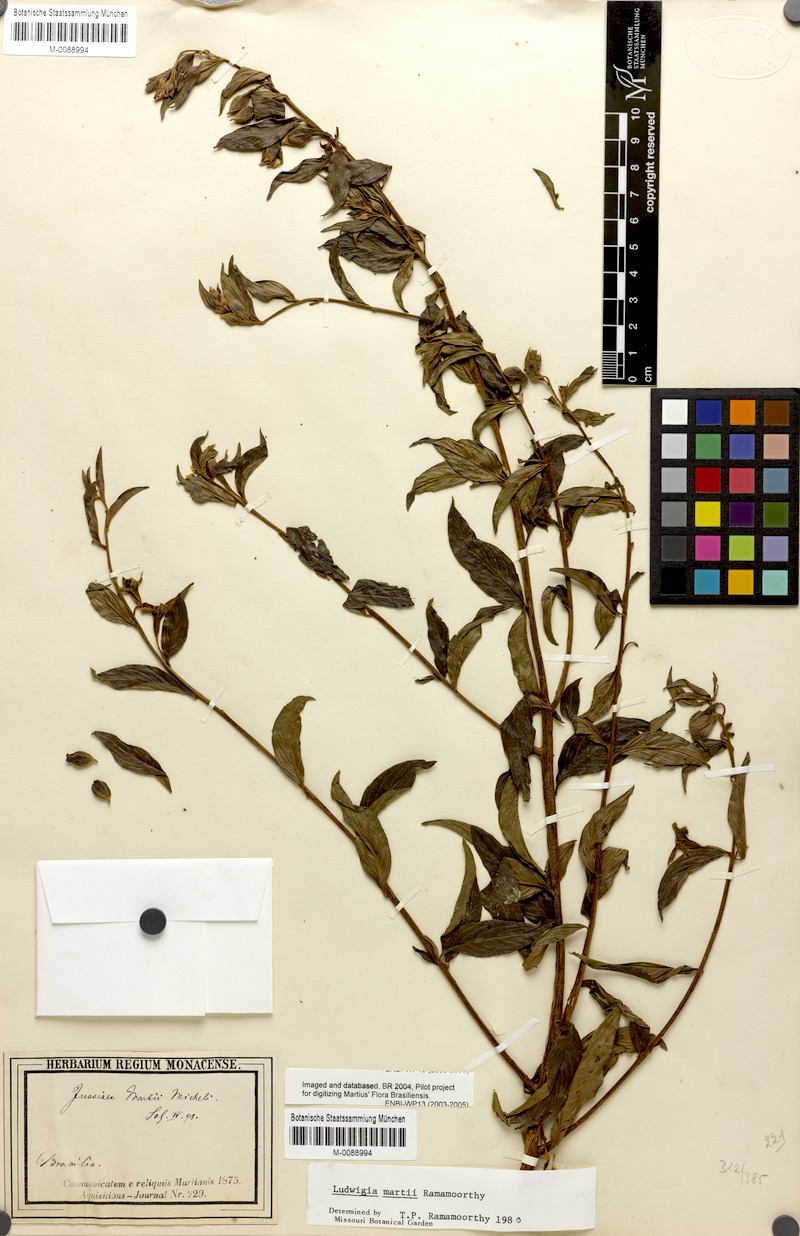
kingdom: Plantae
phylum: Tracheophyta
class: Magnoliopsida
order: Myrtales
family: Onagraceae
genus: Ludwigia
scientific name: Ludwigia martii
